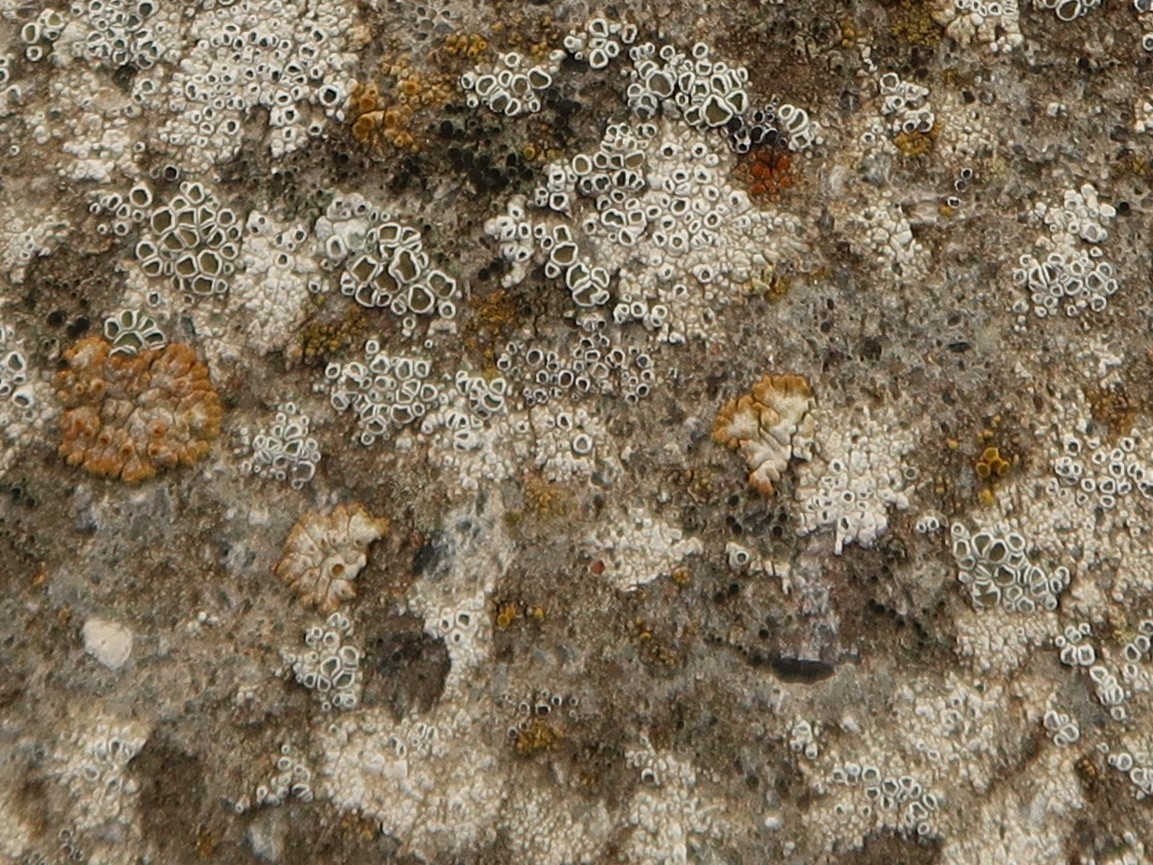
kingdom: Fungi
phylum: Ascomycota
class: Lecanoromycetes
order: Lecanorales
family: Lecanoraceae
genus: Polyozosia
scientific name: Polyozosia albescens
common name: cement-kantskivelav
